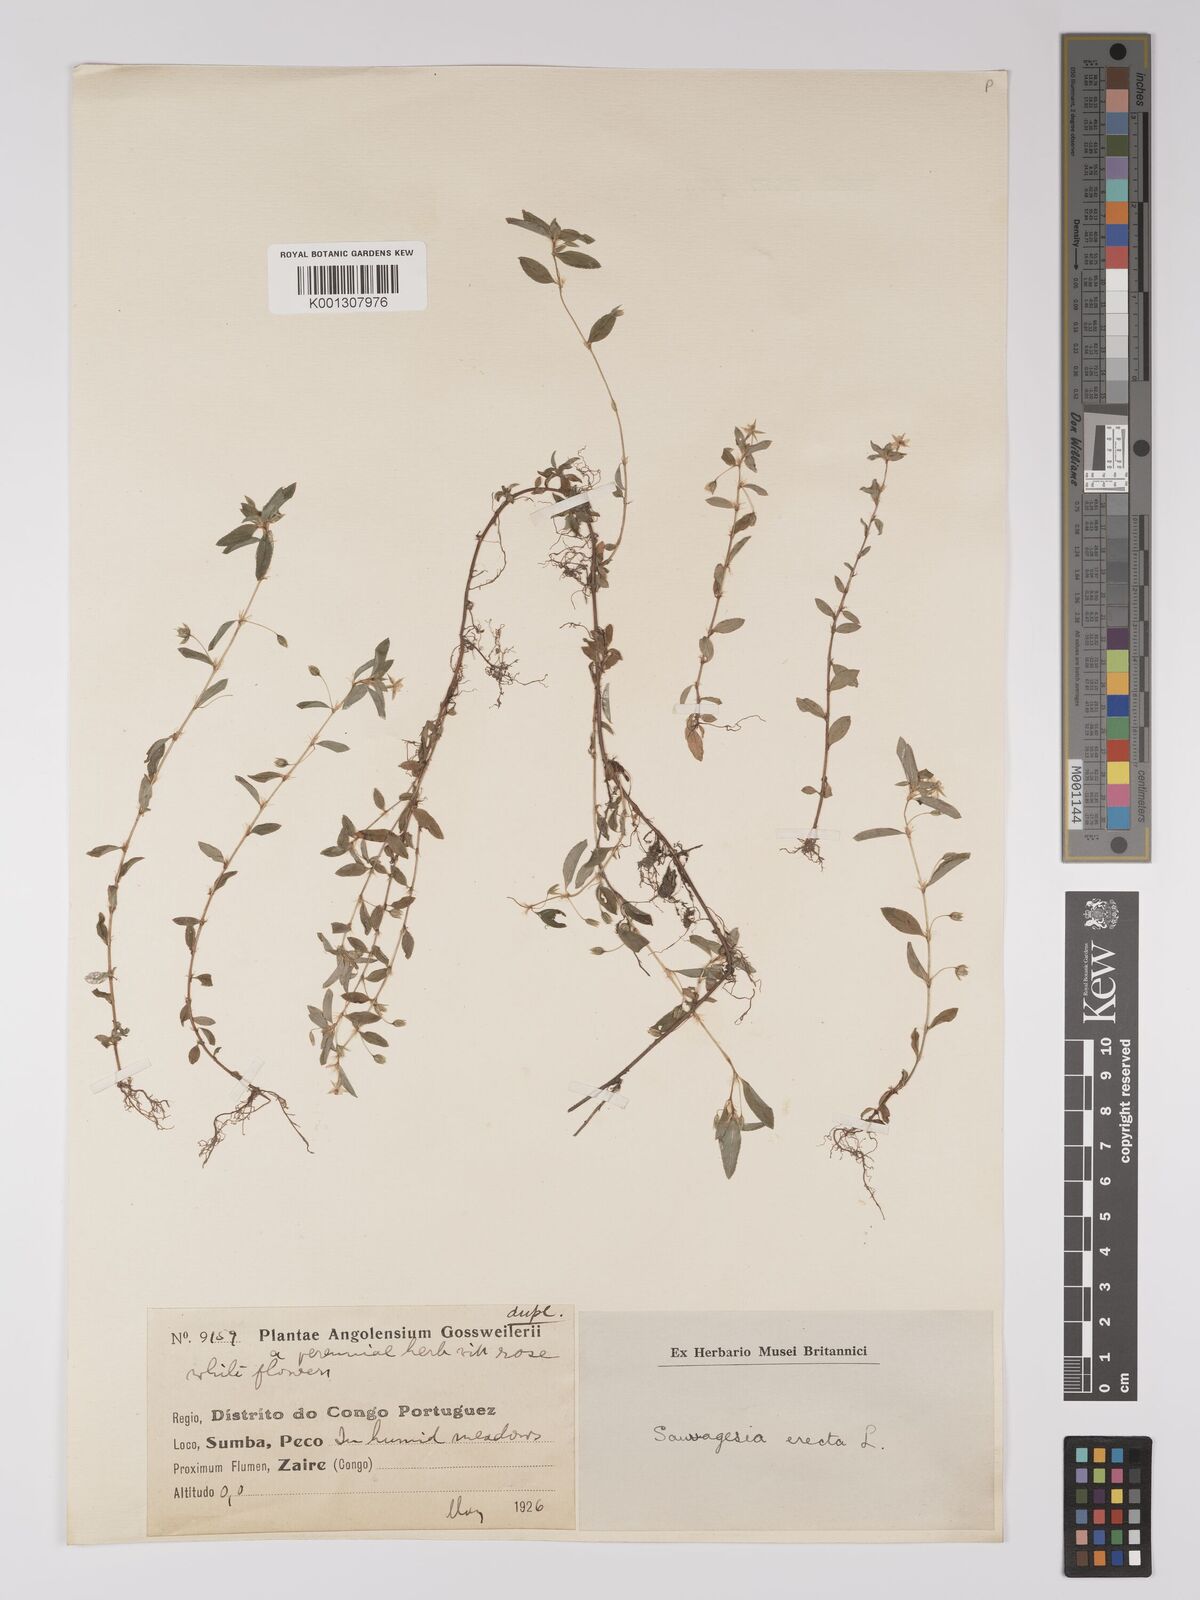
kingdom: Plantae
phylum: Tracheophyta
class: Magnoliopsida
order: Malpighiales
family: Ochnaceae
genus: Sauvagesia
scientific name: Sauvagesia erecta
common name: Creole tea
